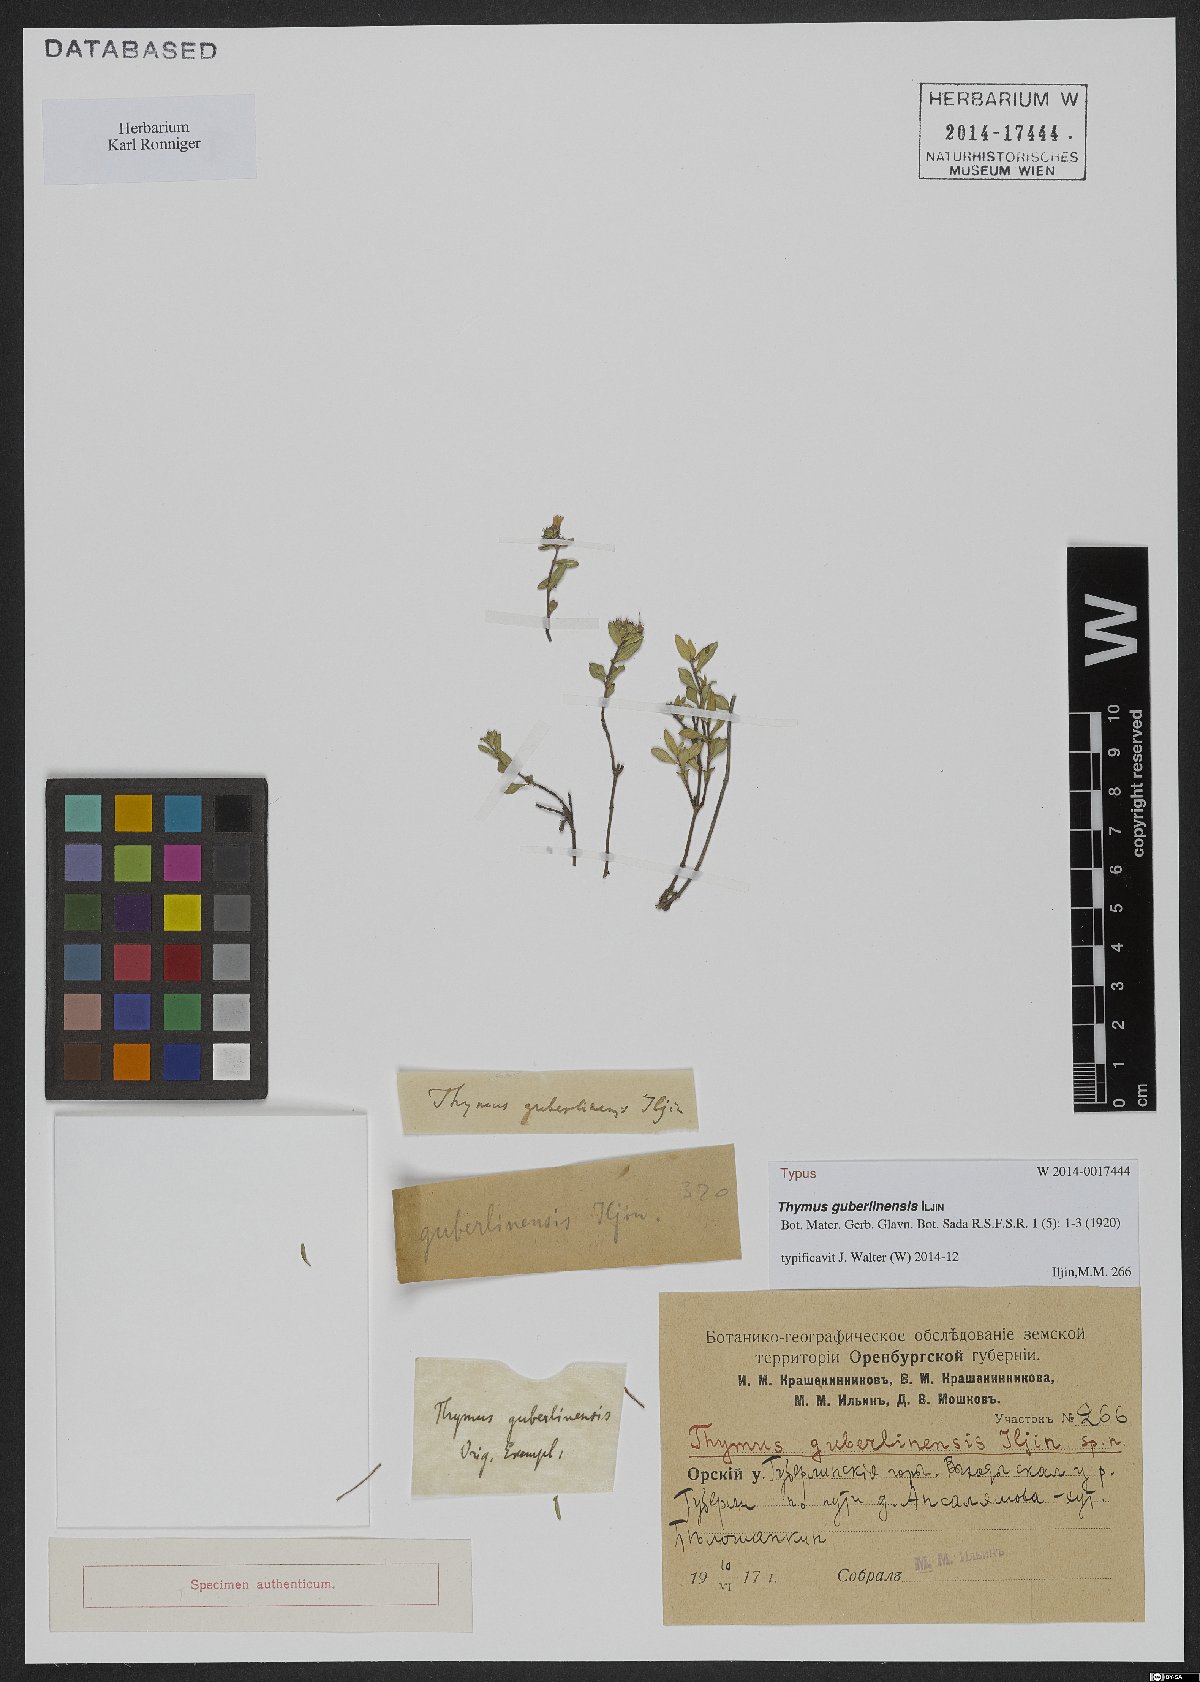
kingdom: Plantae
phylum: Tracheophyta
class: Magnoliopsida
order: Lamiales
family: Lamiaceae
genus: Thymus
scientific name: Thymus guberlinensis
